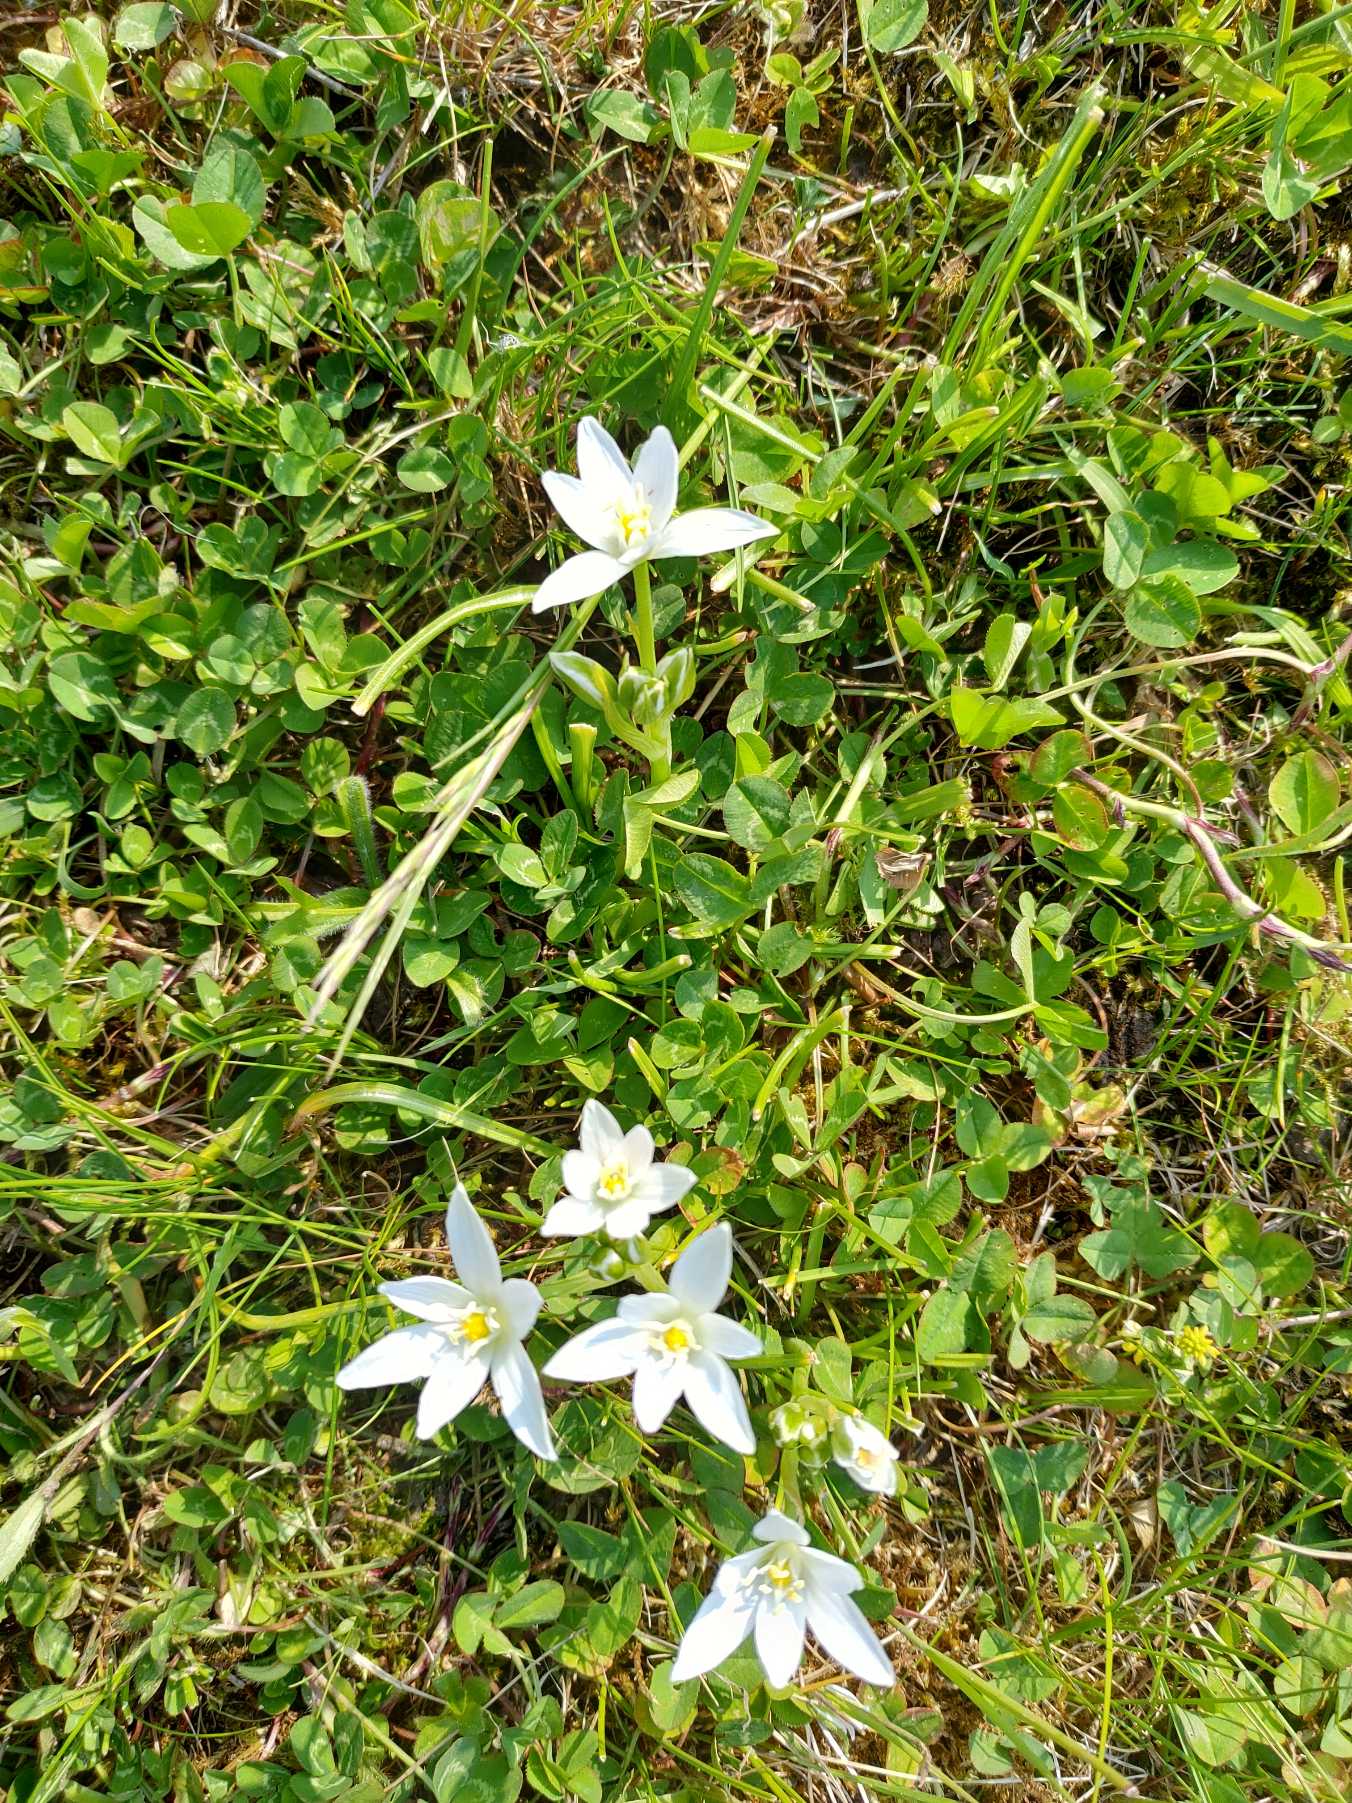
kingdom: Plantae
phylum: Tracheophyta
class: Liliopsida
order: Asparagales
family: Asparagaceae
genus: Ornithogalum
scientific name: Ornithogalum umbellatum
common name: Kost-fuglemælk
